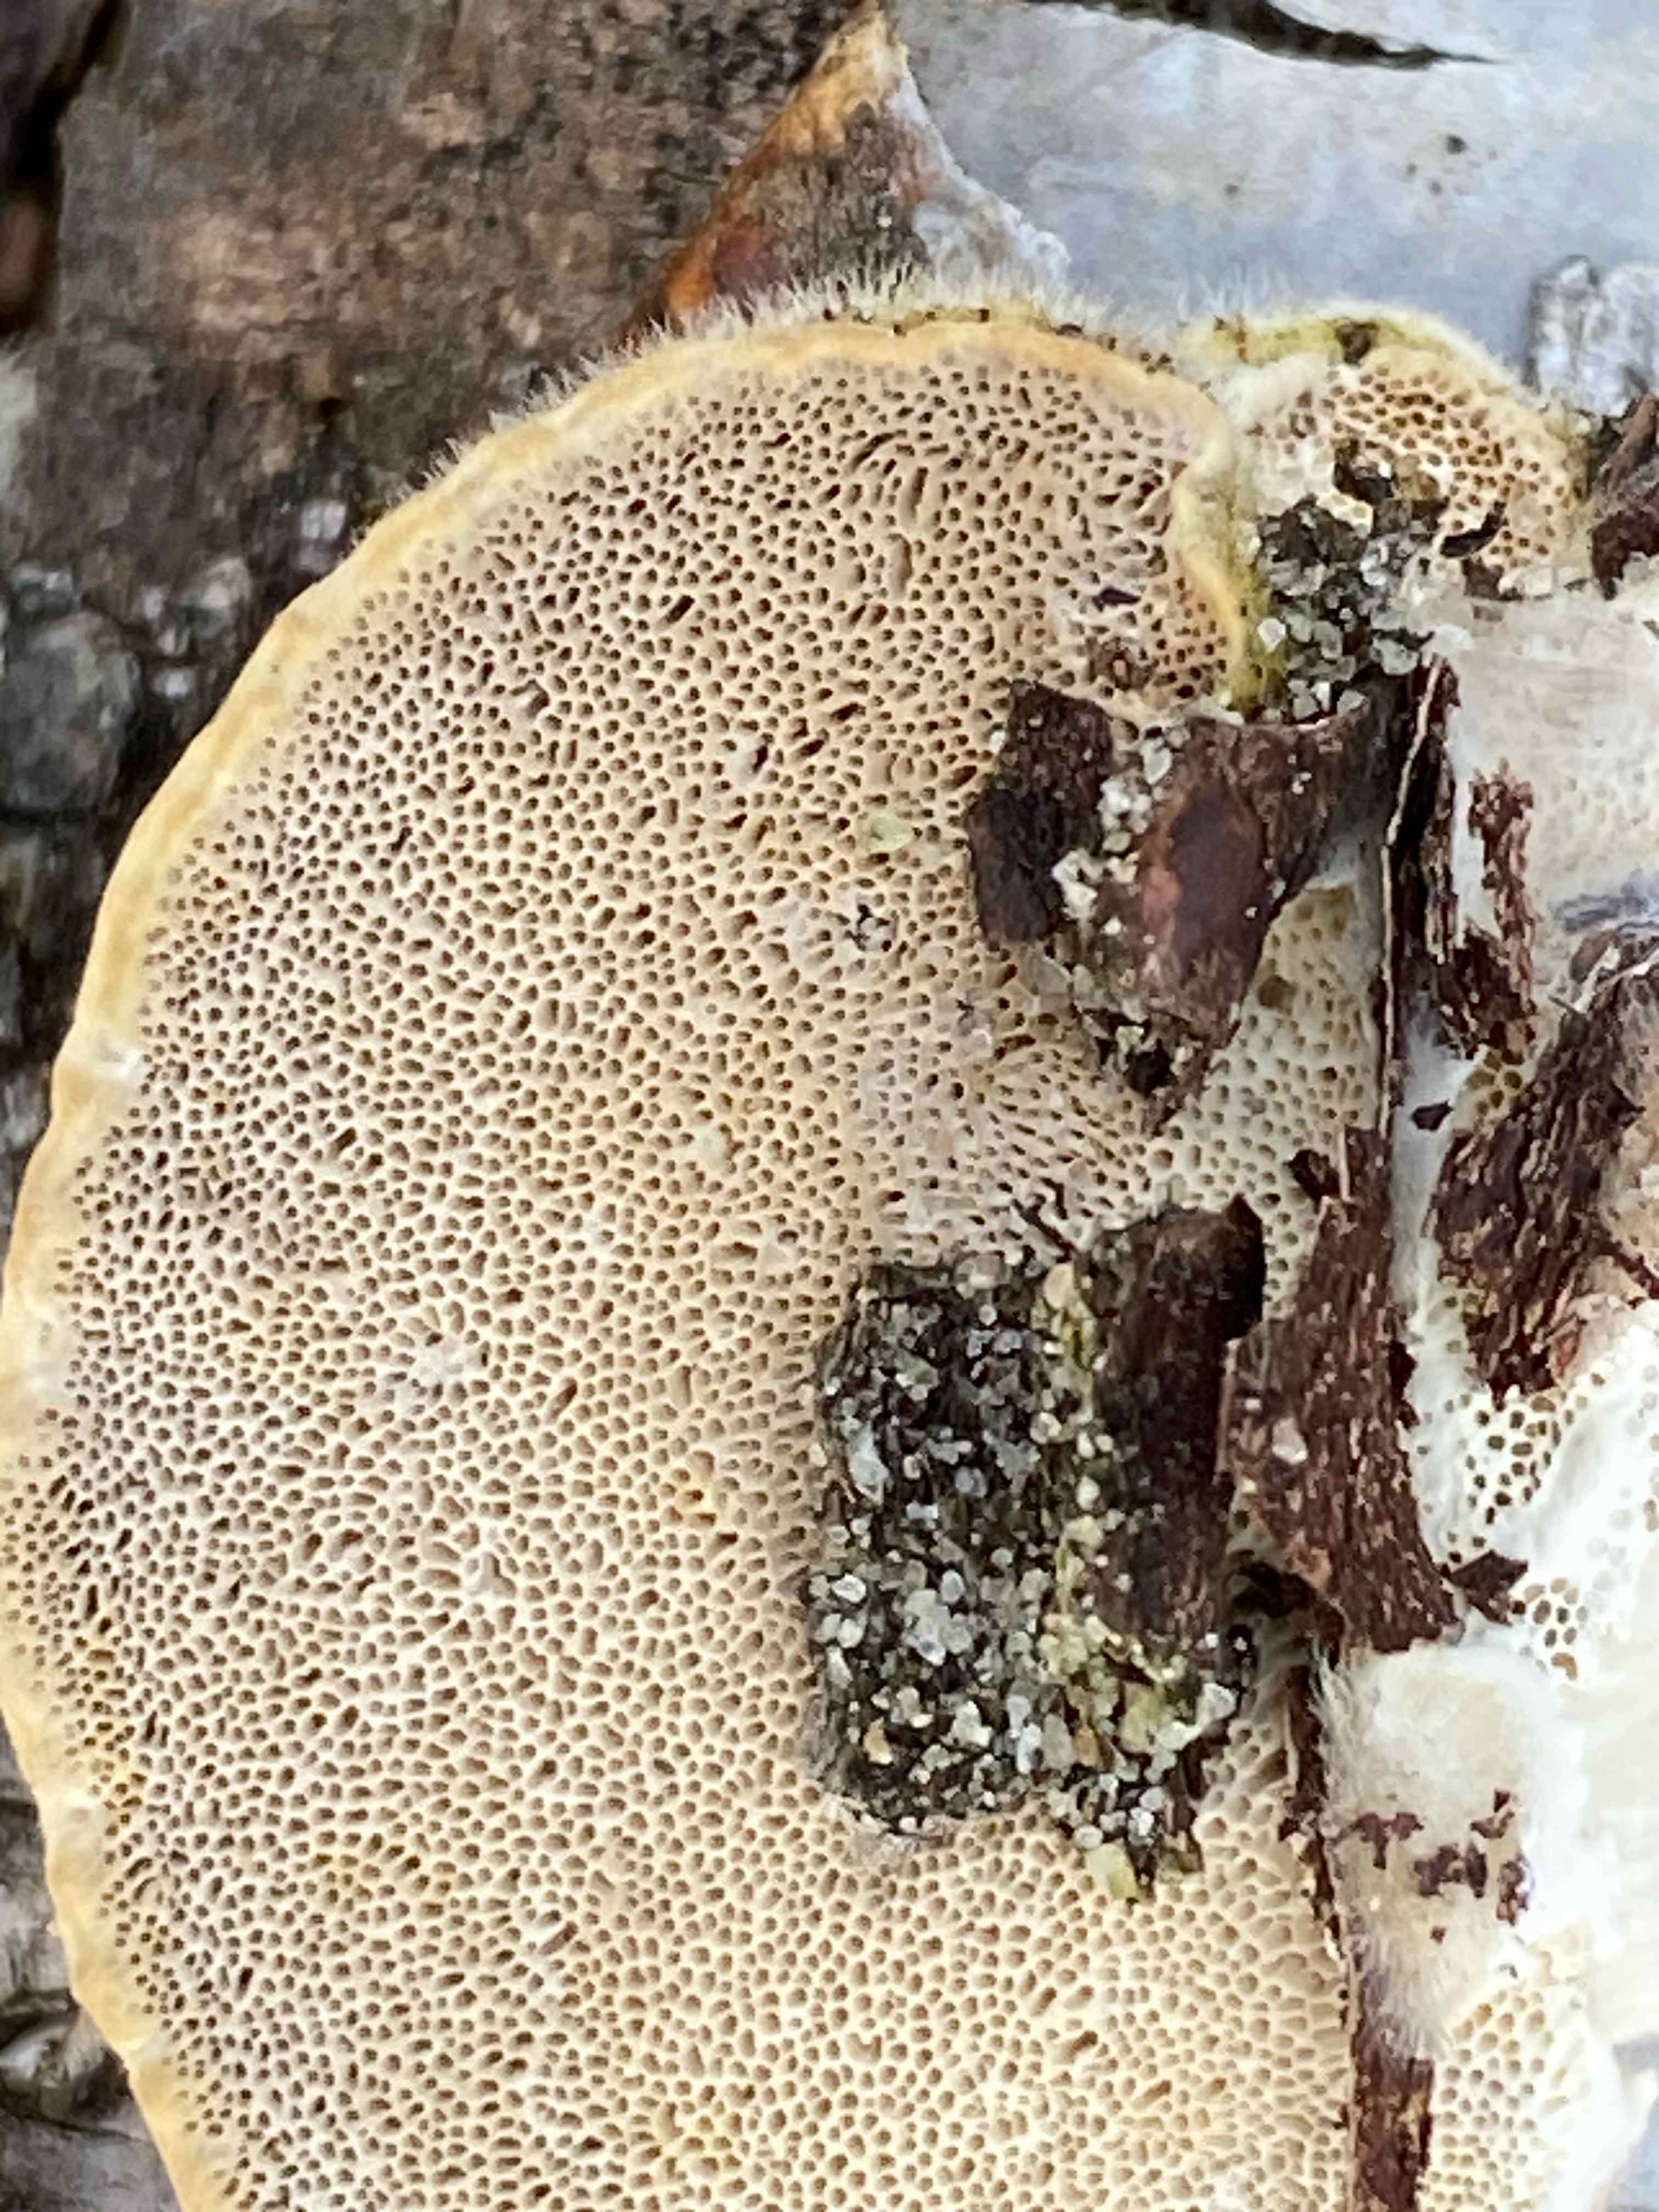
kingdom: Fungi
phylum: Basidiomycota
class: Agaricomycetes
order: Polyporales
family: Polyporaceae
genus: Trametes
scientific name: Trametes hirsuta
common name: håret læderporesvamp
